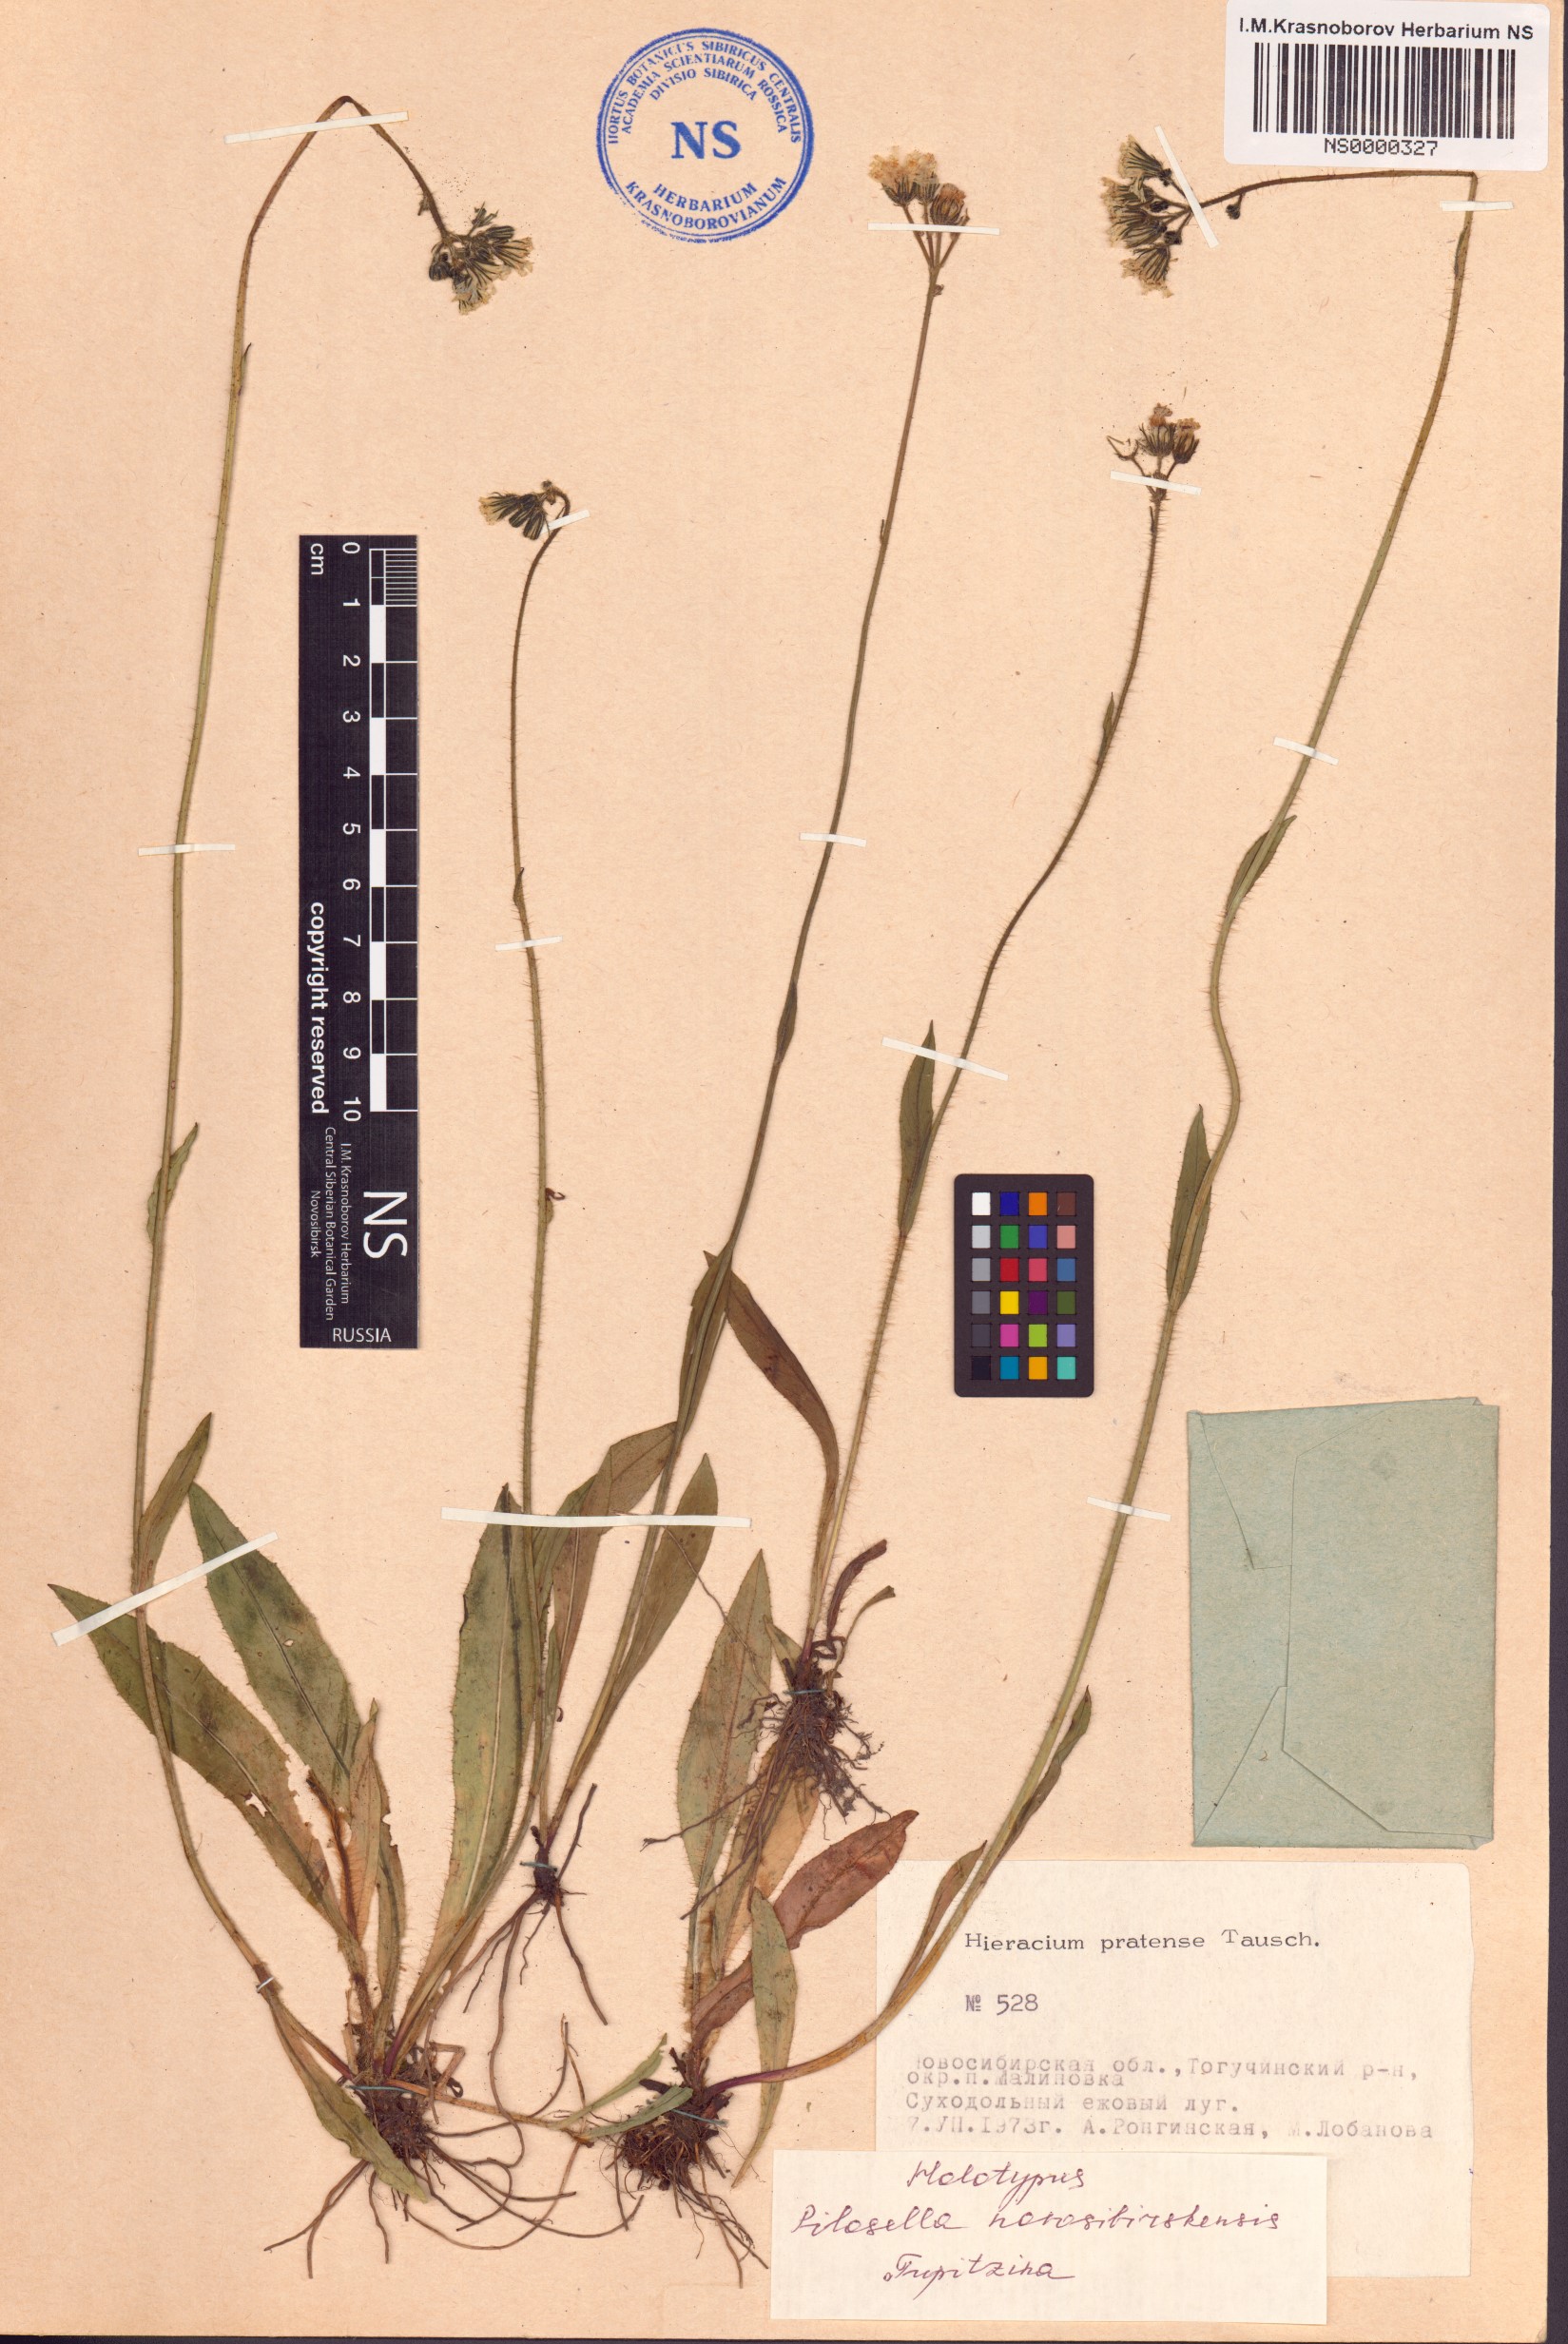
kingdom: Plantae
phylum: Tracheophyta
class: Magnoliopsida
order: Asterales
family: Asteraceae
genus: Pilosella
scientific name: Pilosella novosibirskensis
